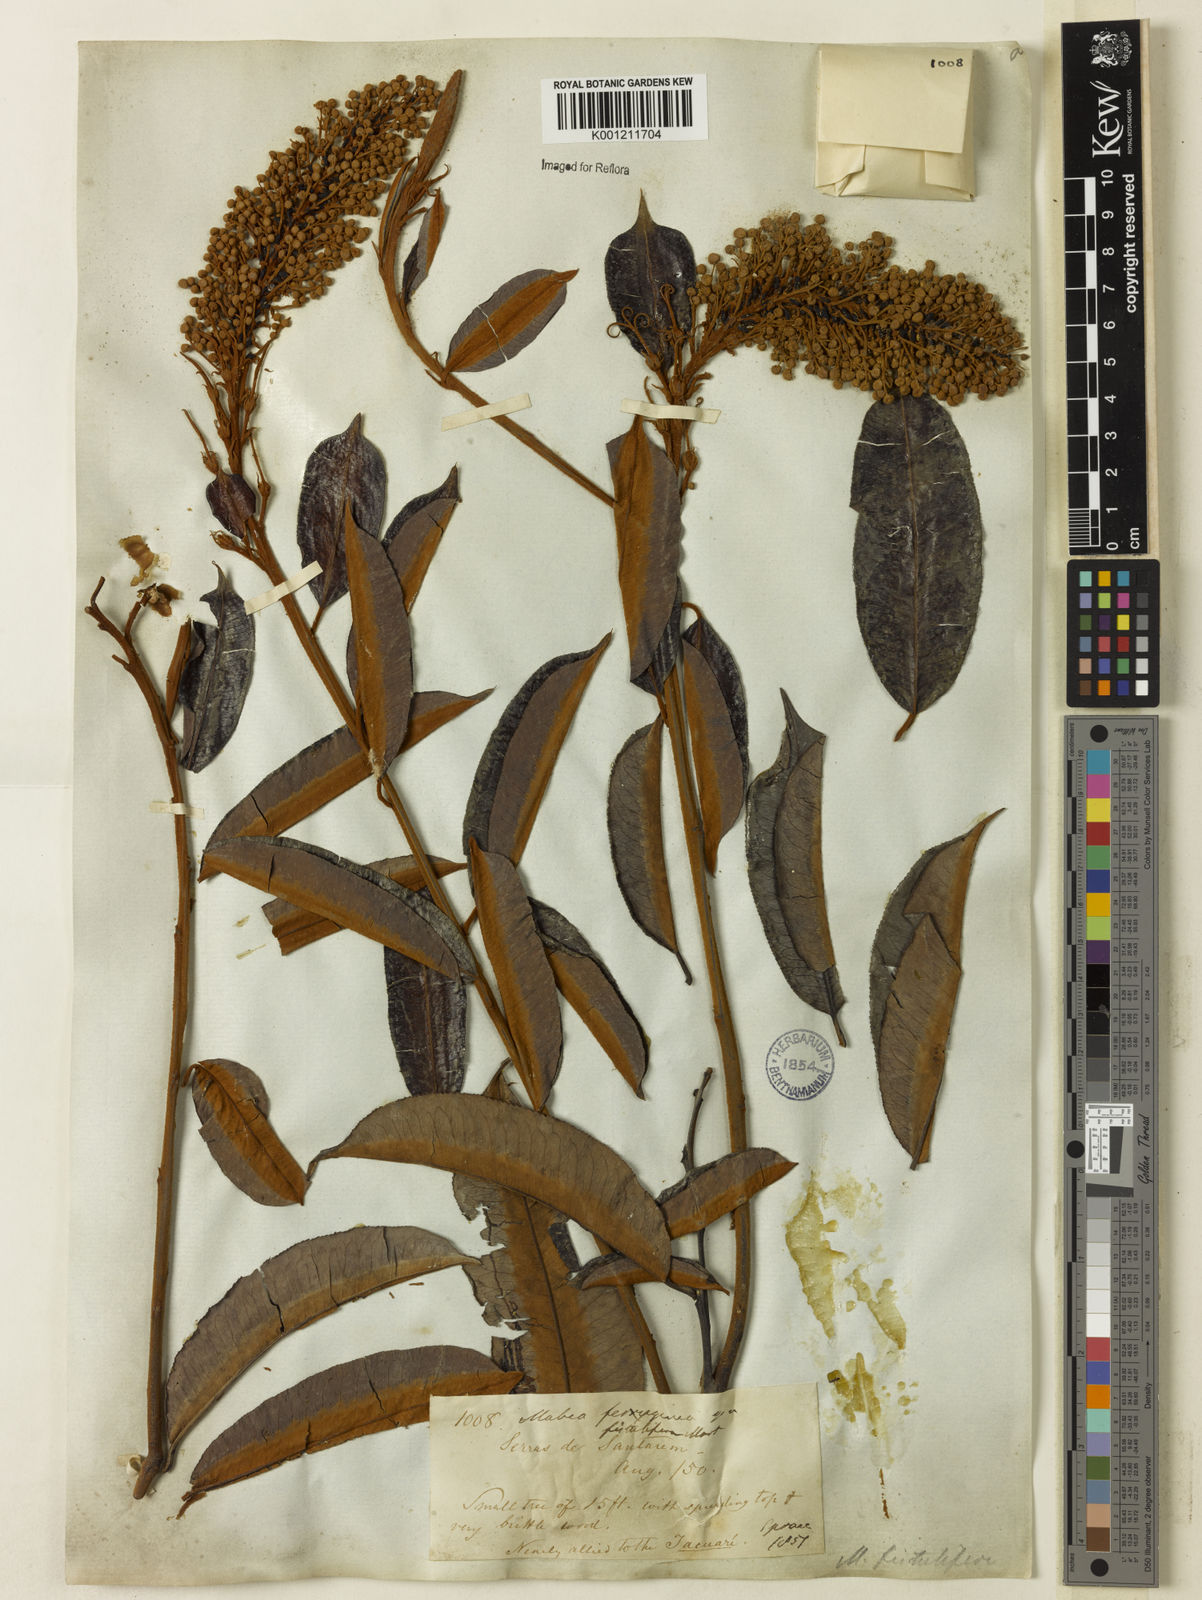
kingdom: Plantae
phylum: Tracheophyta
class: Magnoliopsida
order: Malpighiales
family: Euphorbiaceae
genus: Mabea
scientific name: Mabea fistulifera
